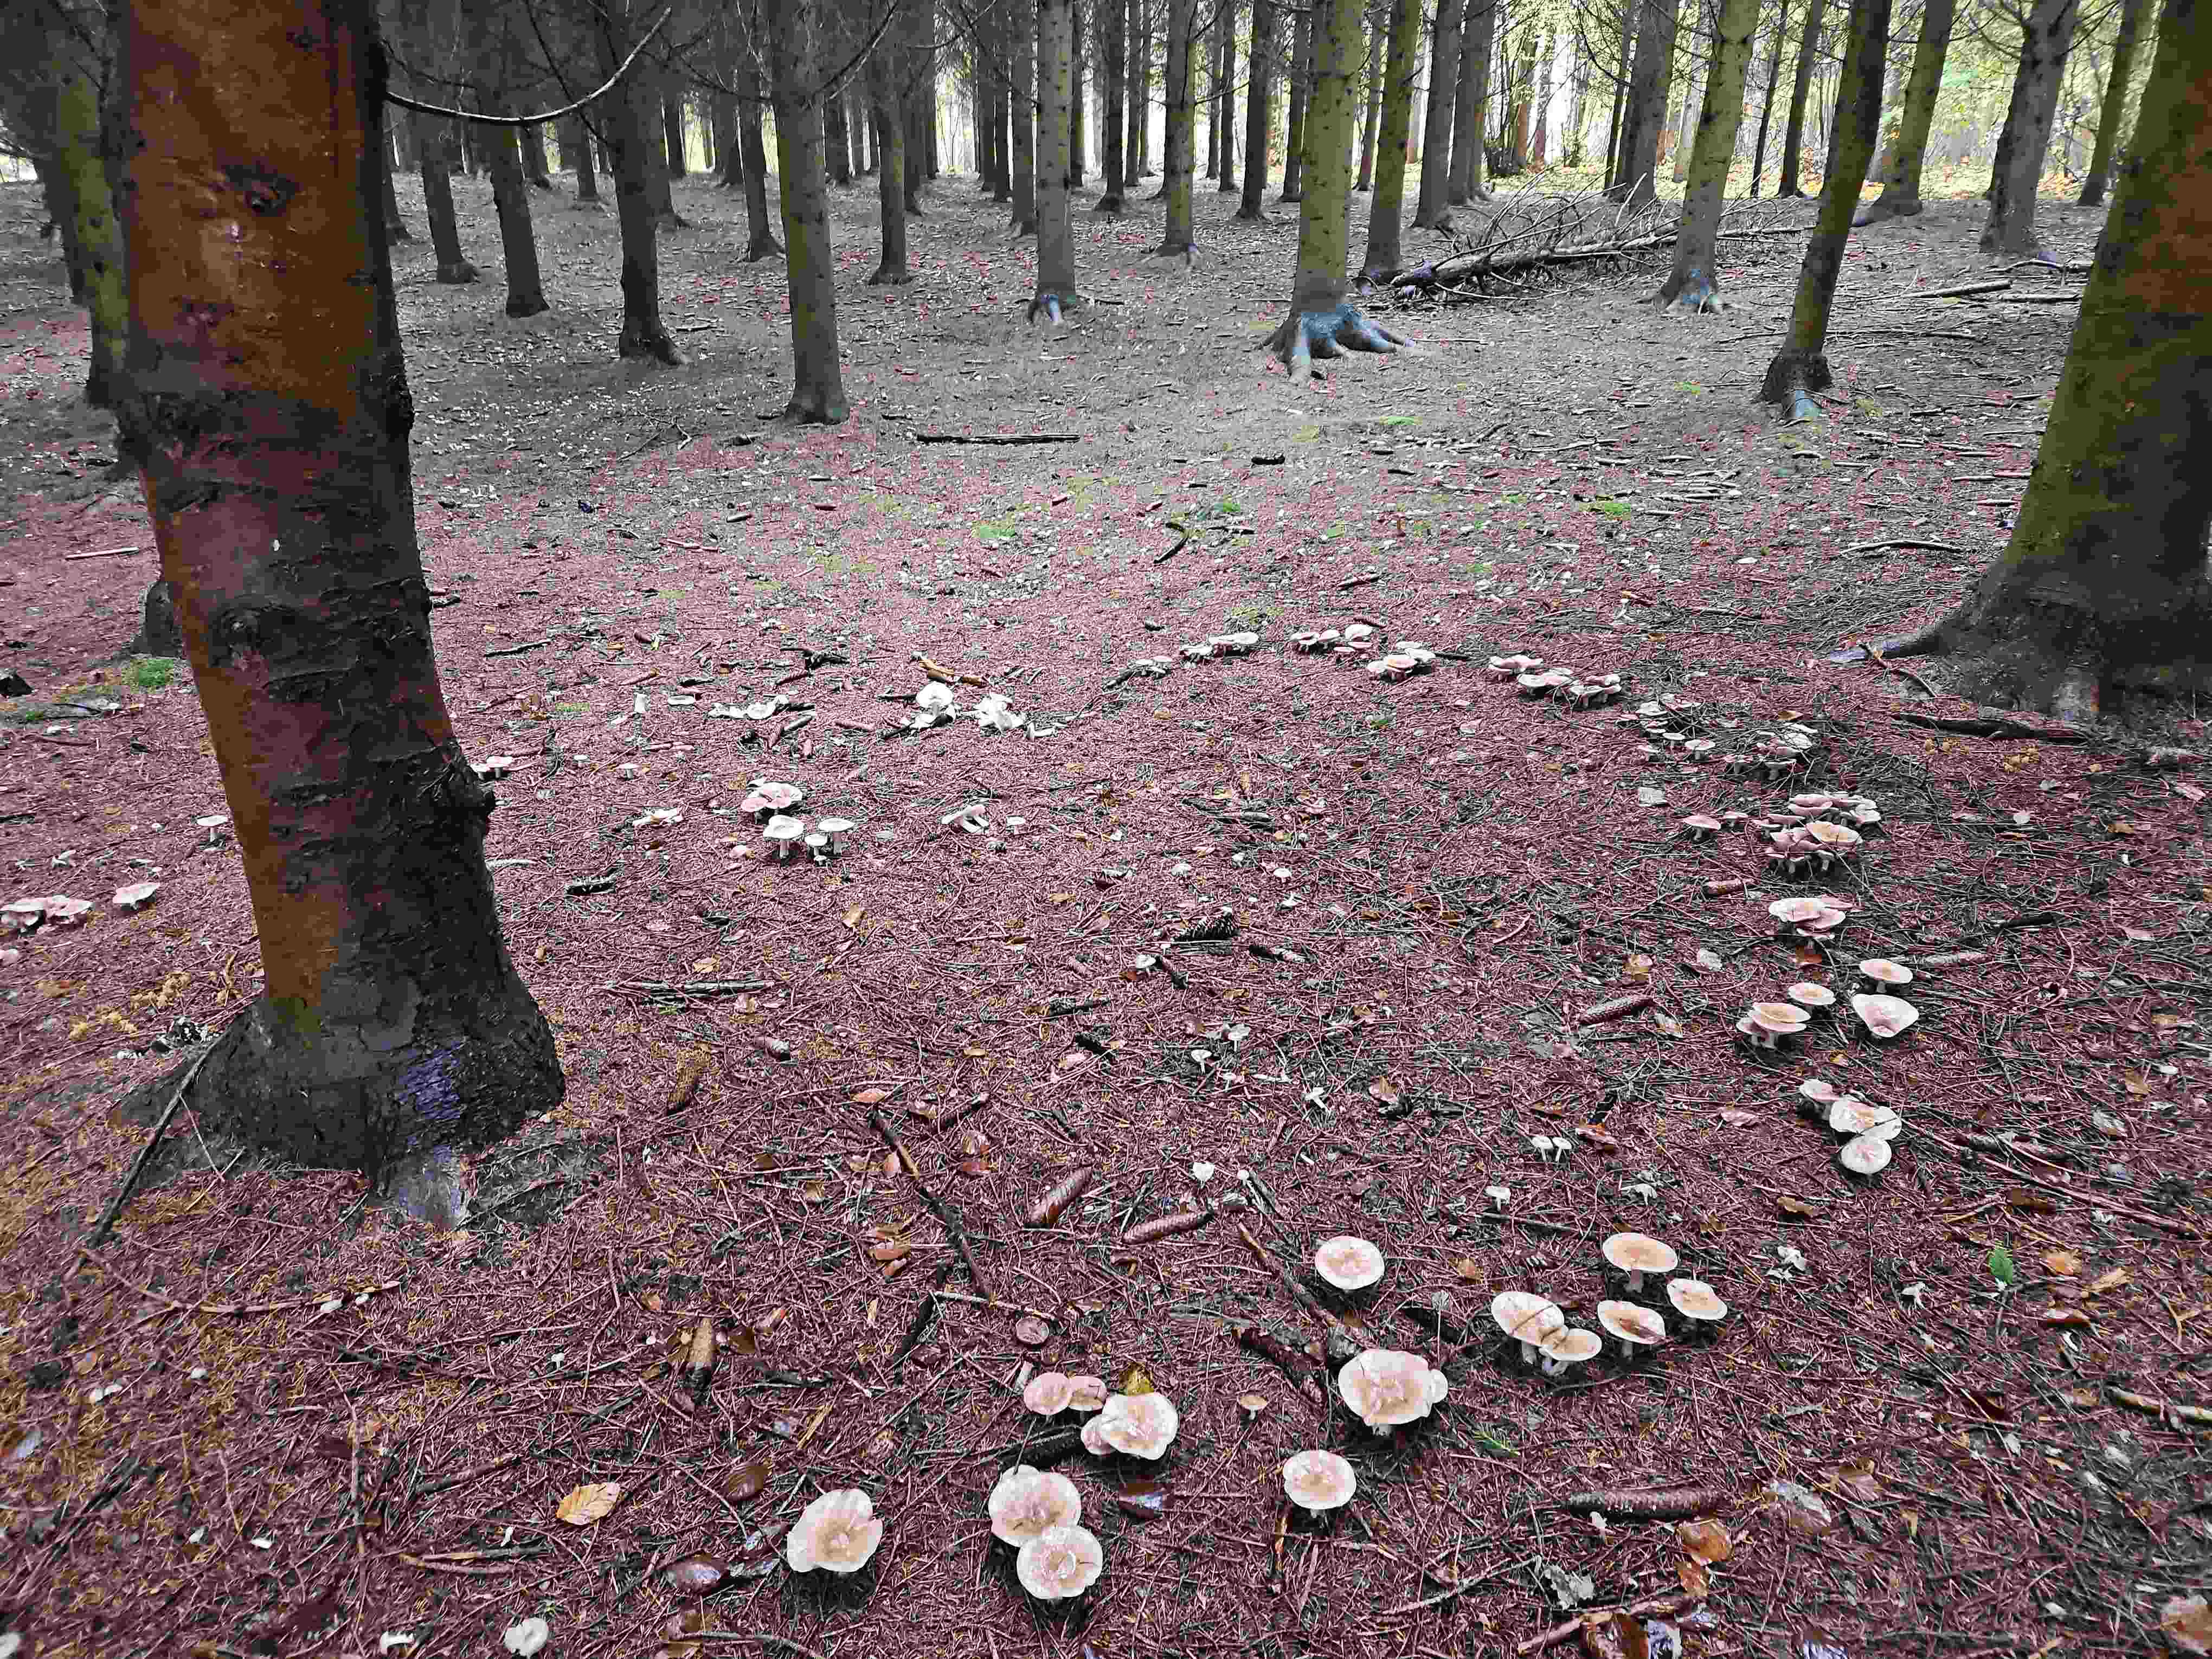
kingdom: Fungi
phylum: Basidiomycota
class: Agaricomycetes
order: Agaricales
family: Tricholomataceae
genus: Lepista
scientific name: Lepista nuda
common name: violet hekseringshat
